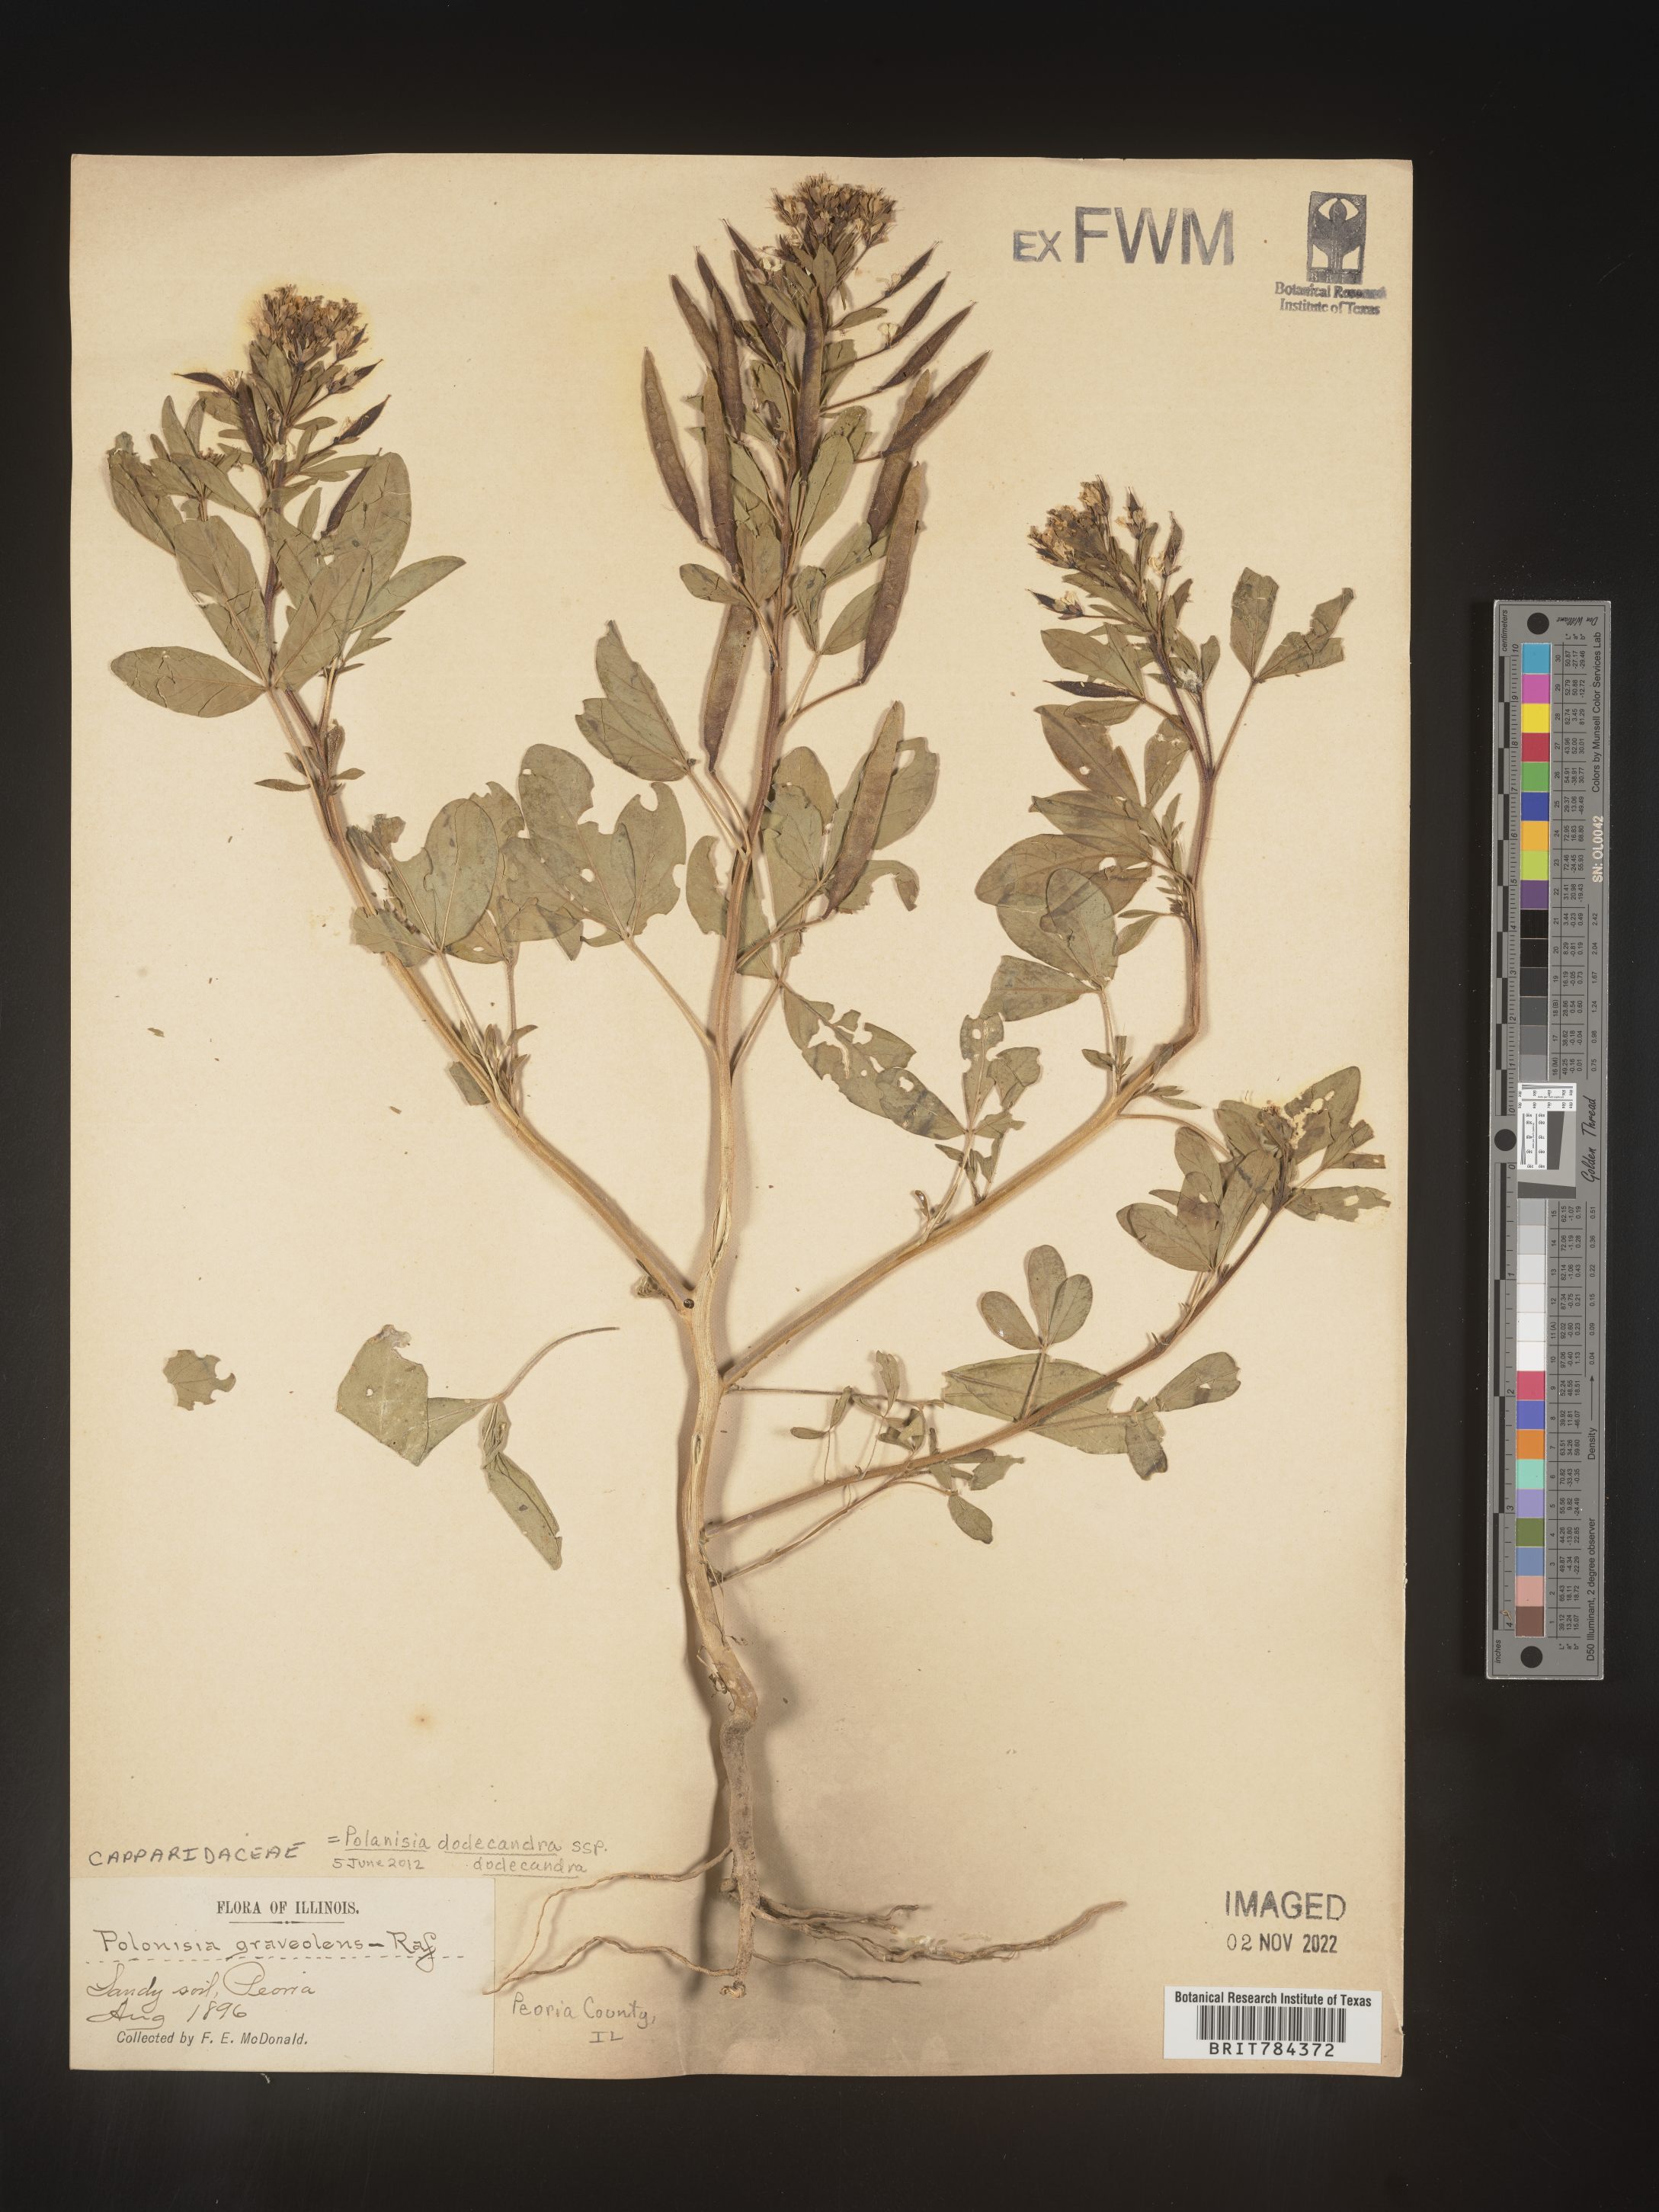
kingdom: Plantae
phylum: Tracheophyta
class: Magnoliopsida
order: Brassicales
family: Cleomaceae
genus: Polanisia
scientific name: Polanisia dodecandra
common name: Clammyweed
